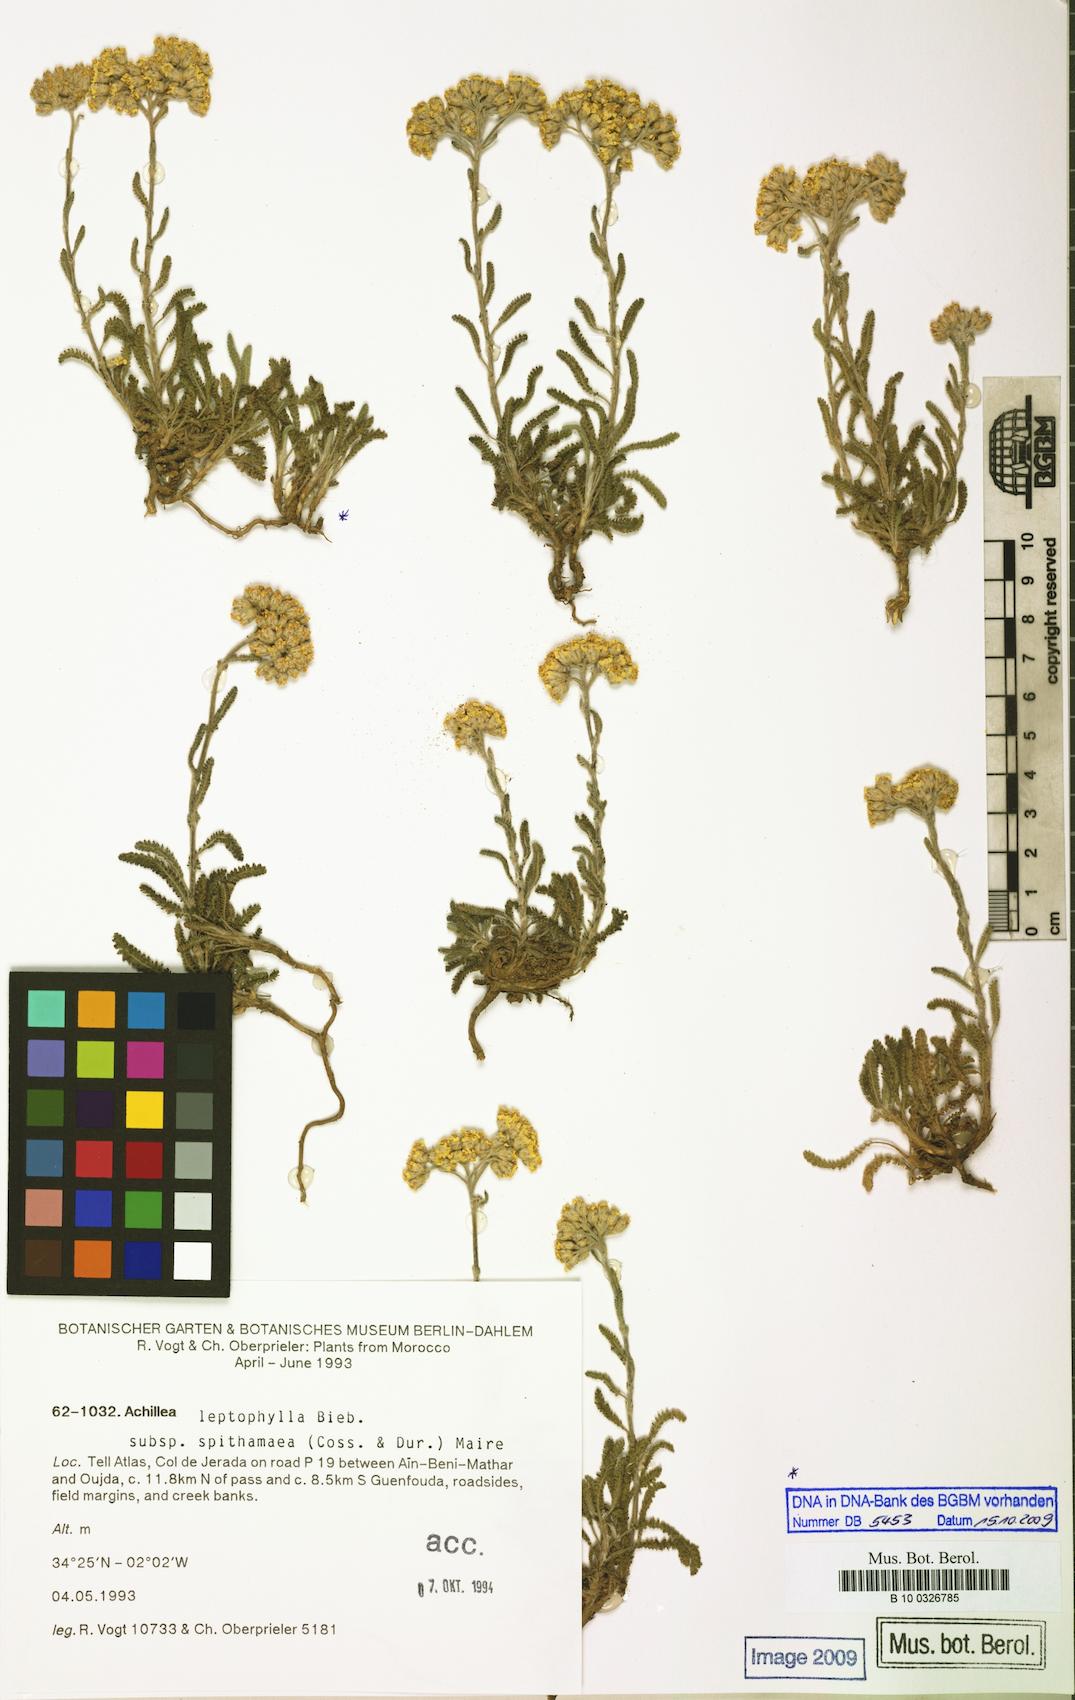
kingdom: Plantae
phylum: Tracheophyta
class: Magnoliopsida
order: Asterales
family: Asteraceae
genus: Achillea
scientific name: Achillea leptophylla
